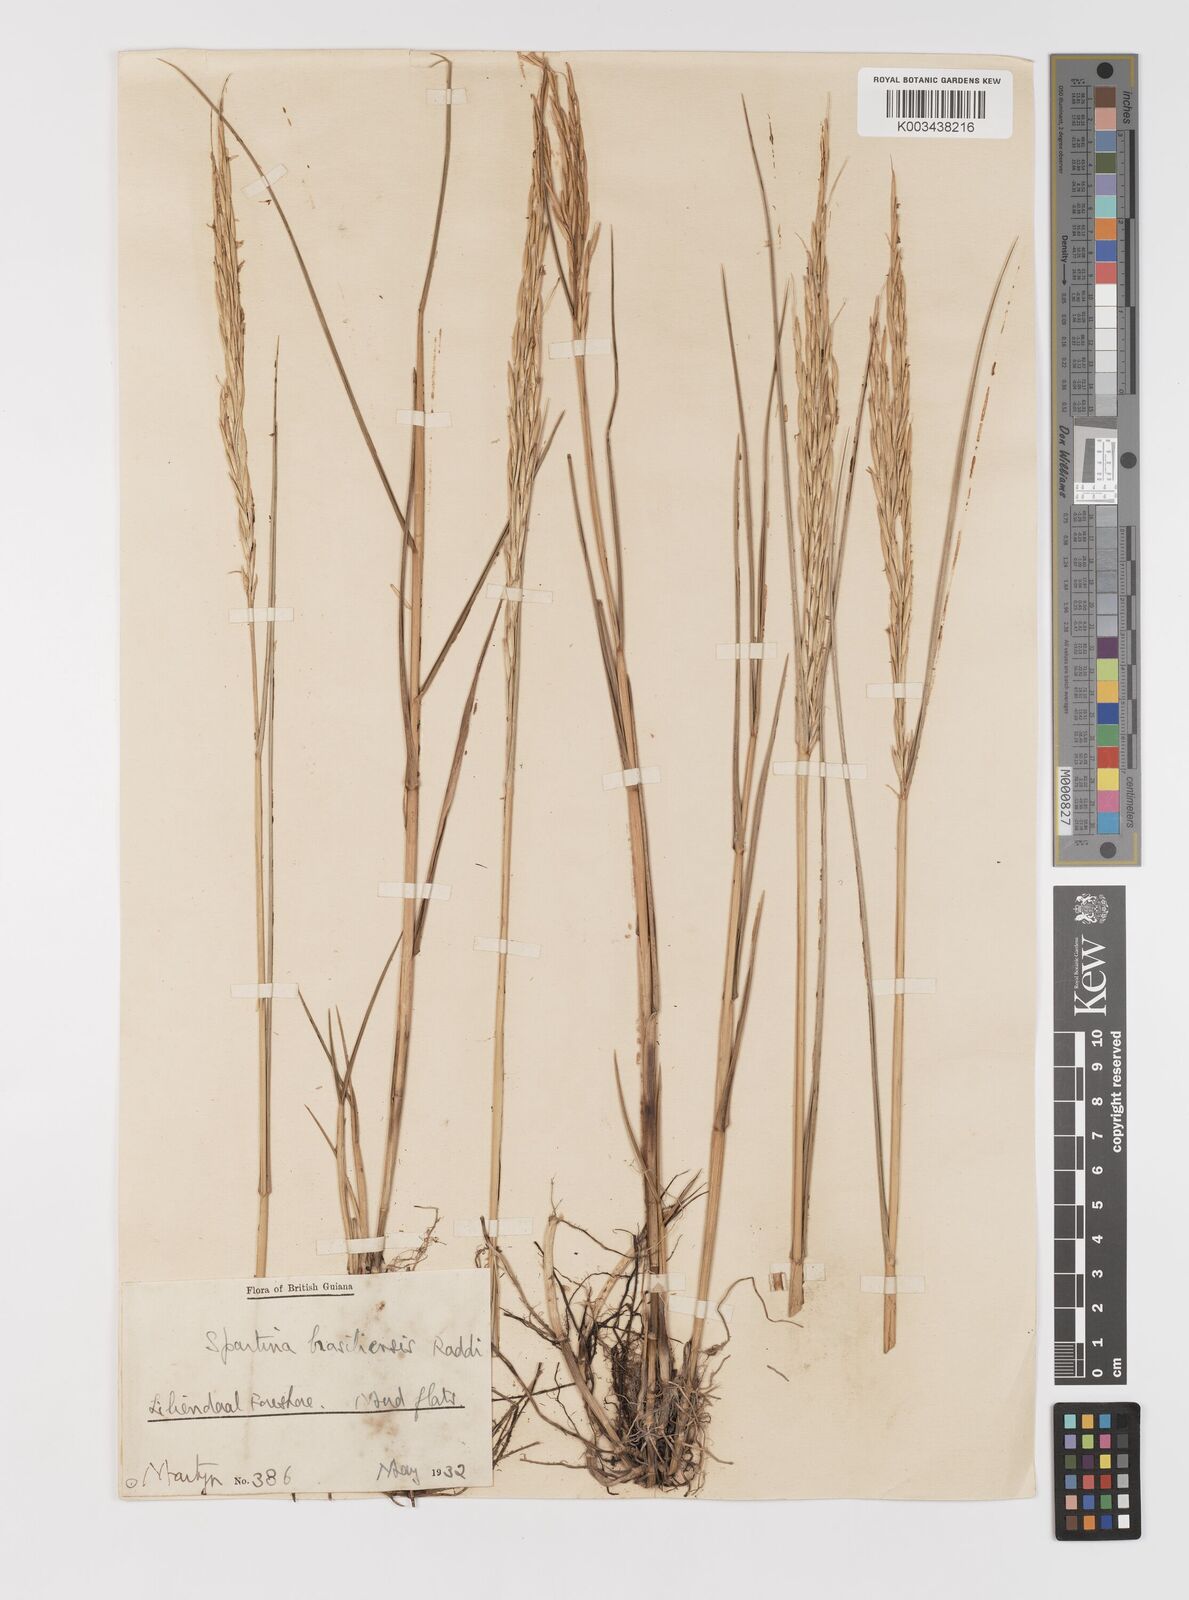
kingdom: Plantae
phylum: Tracheophyta
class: Liliopsida
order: Poales
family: Poaceae
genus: Sporobolus
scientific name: Sporobolus alterniflorus
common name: Atlantic cordgrass
